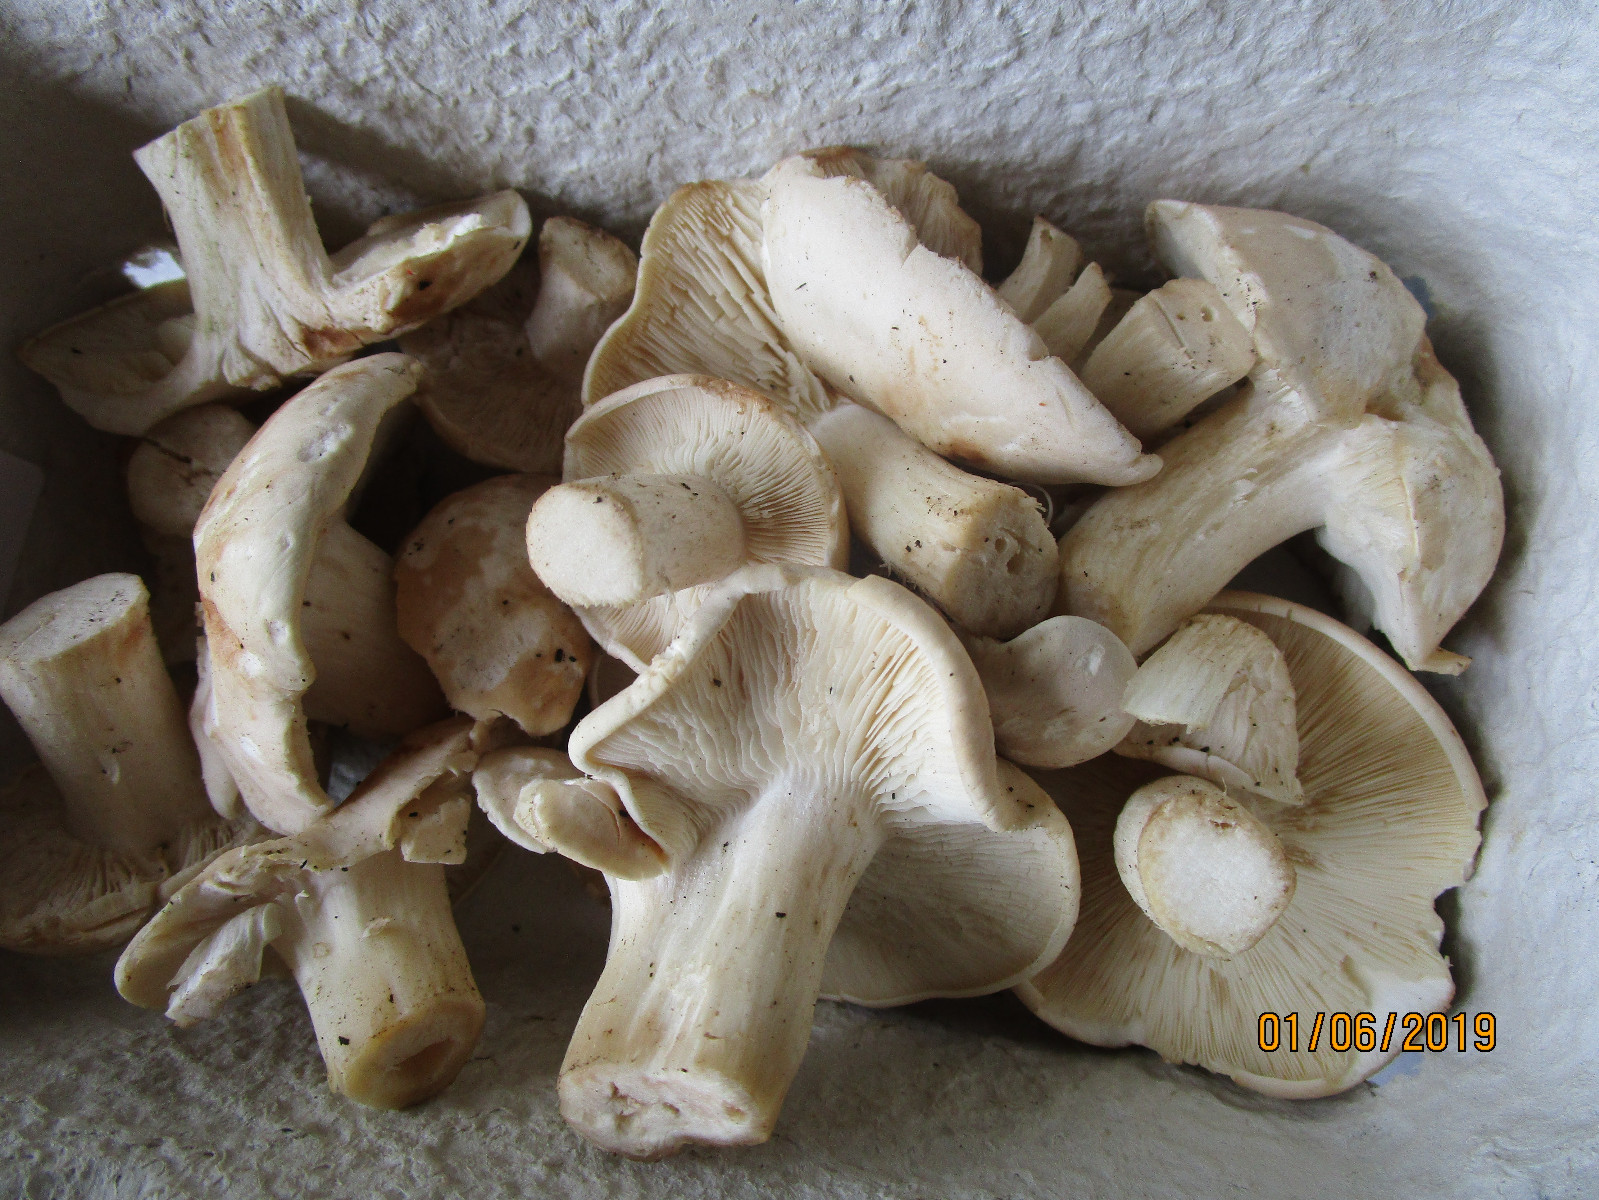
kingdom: Fungi
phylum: Basidiomycota
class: Agaricomycetes
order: Agaricales
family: Lyophyllaceae
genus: Calocybe
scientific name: Calocybe gambosa
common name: vårmusseron
